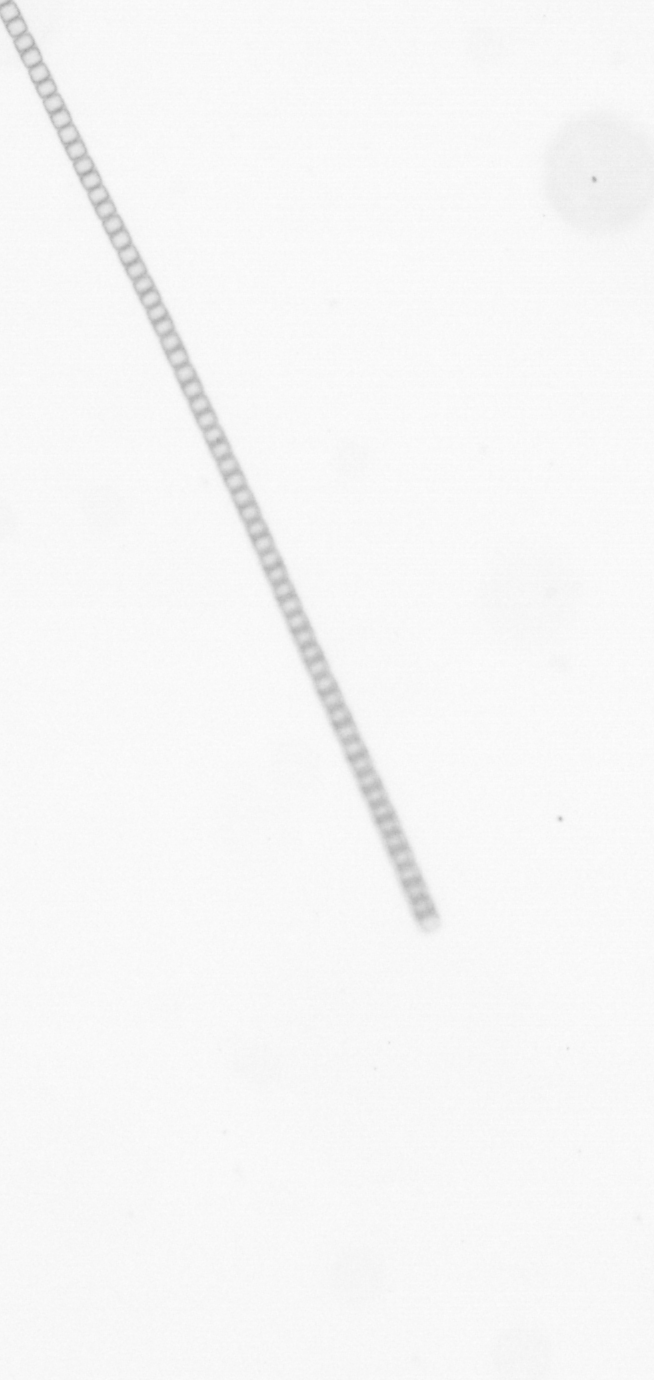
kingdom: Chromista
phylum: Ochrophyta
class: Bacillariophyceae
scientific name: Bacillariophyceae
